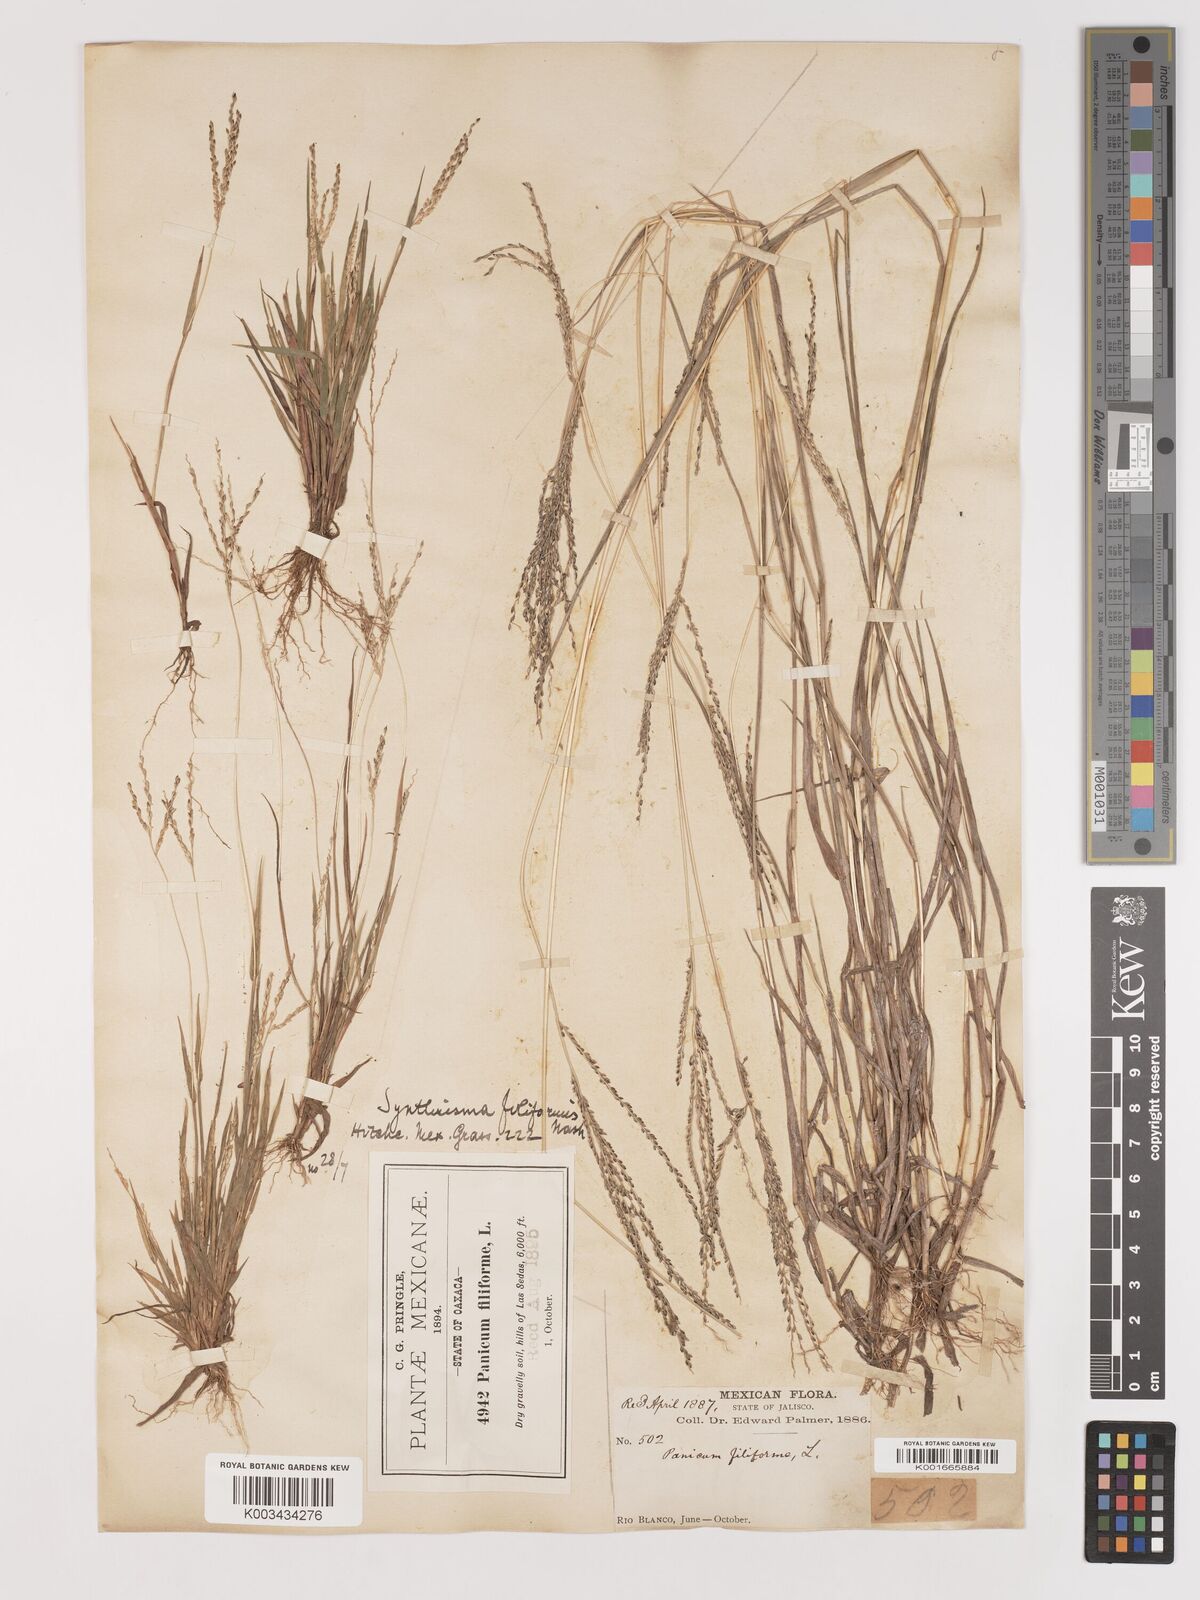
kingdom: Plantae
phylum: Tracheophyta
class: Liliopsida
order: Poales
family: Poaceae
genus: Digitaria
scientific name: Digitaria filiformis
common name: Slender crabgrass
